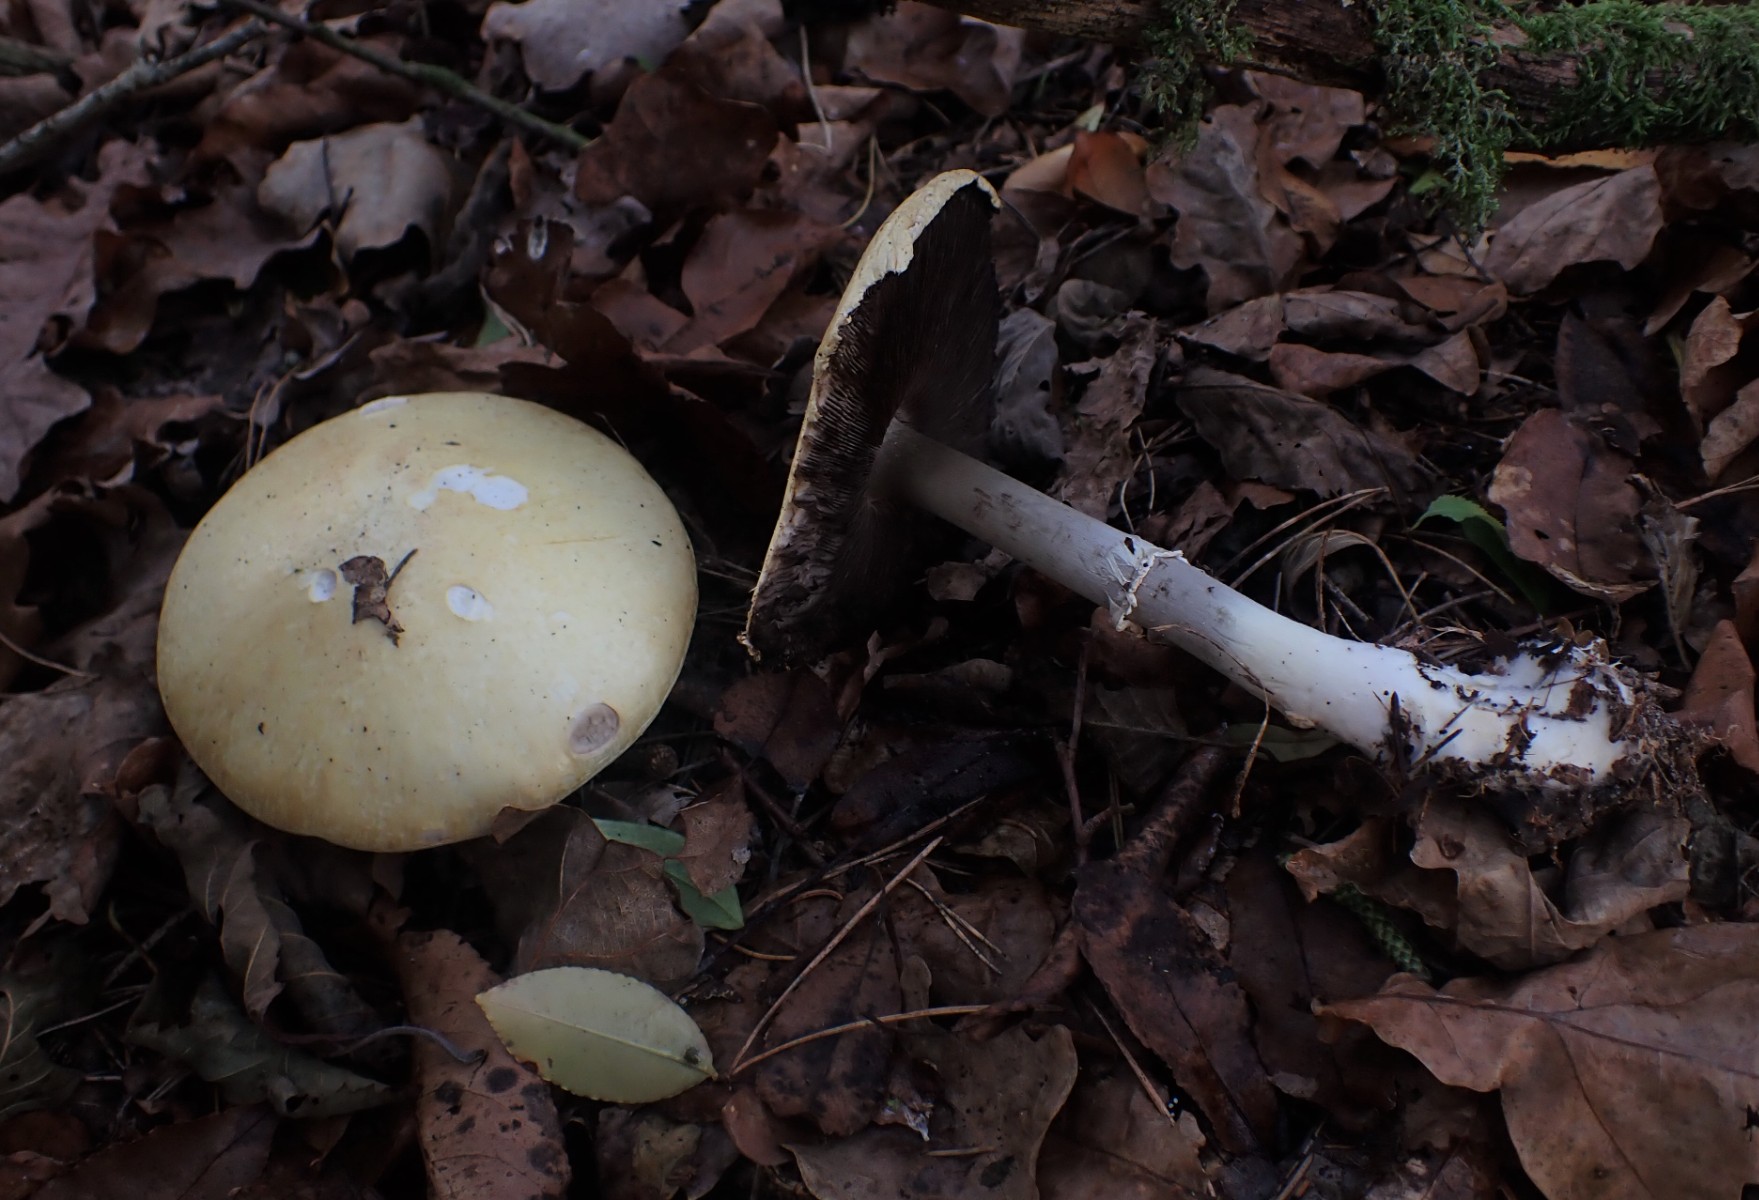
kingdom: Fungi
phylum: Basidiomycota
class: Agaricomycetes
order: Agaricales
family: Agaricaceae
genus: Agaricus
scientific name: Agaricus sylvicola
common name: skiveknoldet champignon
